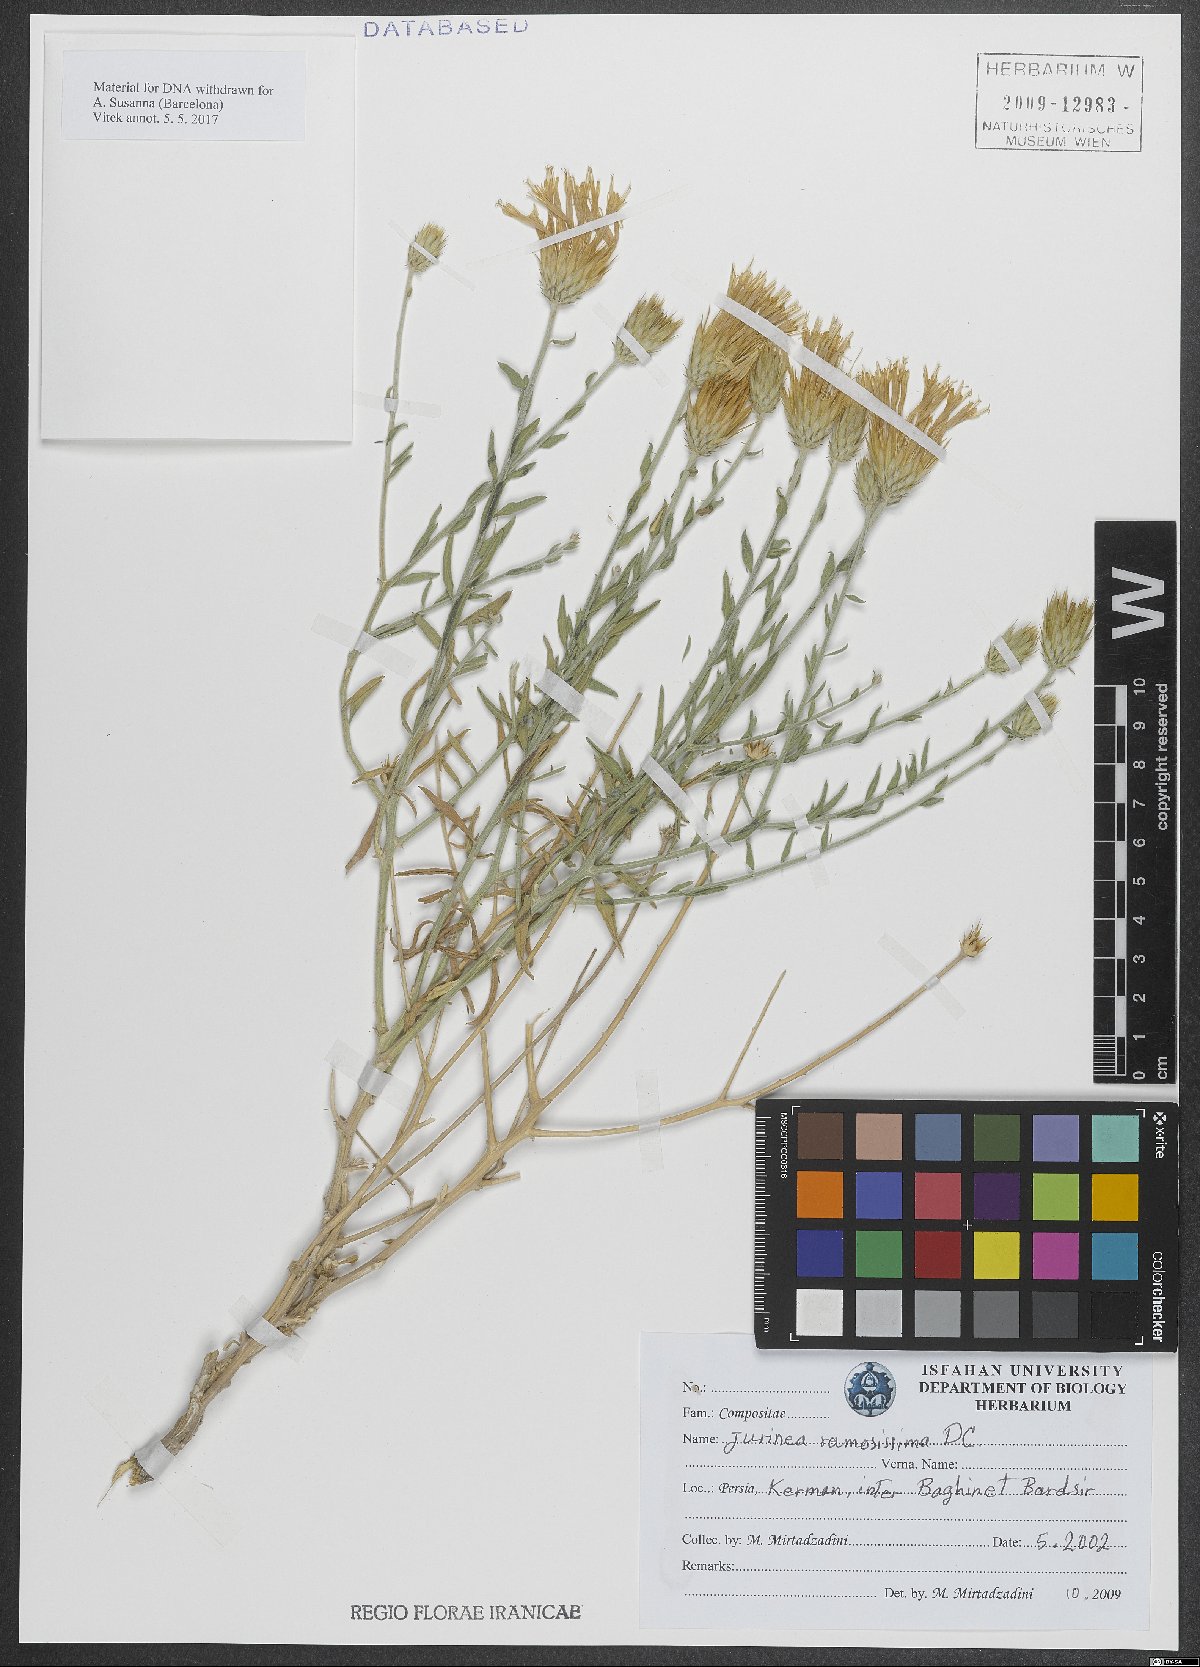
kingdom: Plantae
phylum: Tracheophyta
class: Magnoliopsida
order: Asterales
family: Asteraceae
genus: Jurinea
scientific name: Jurinea ramosissima
